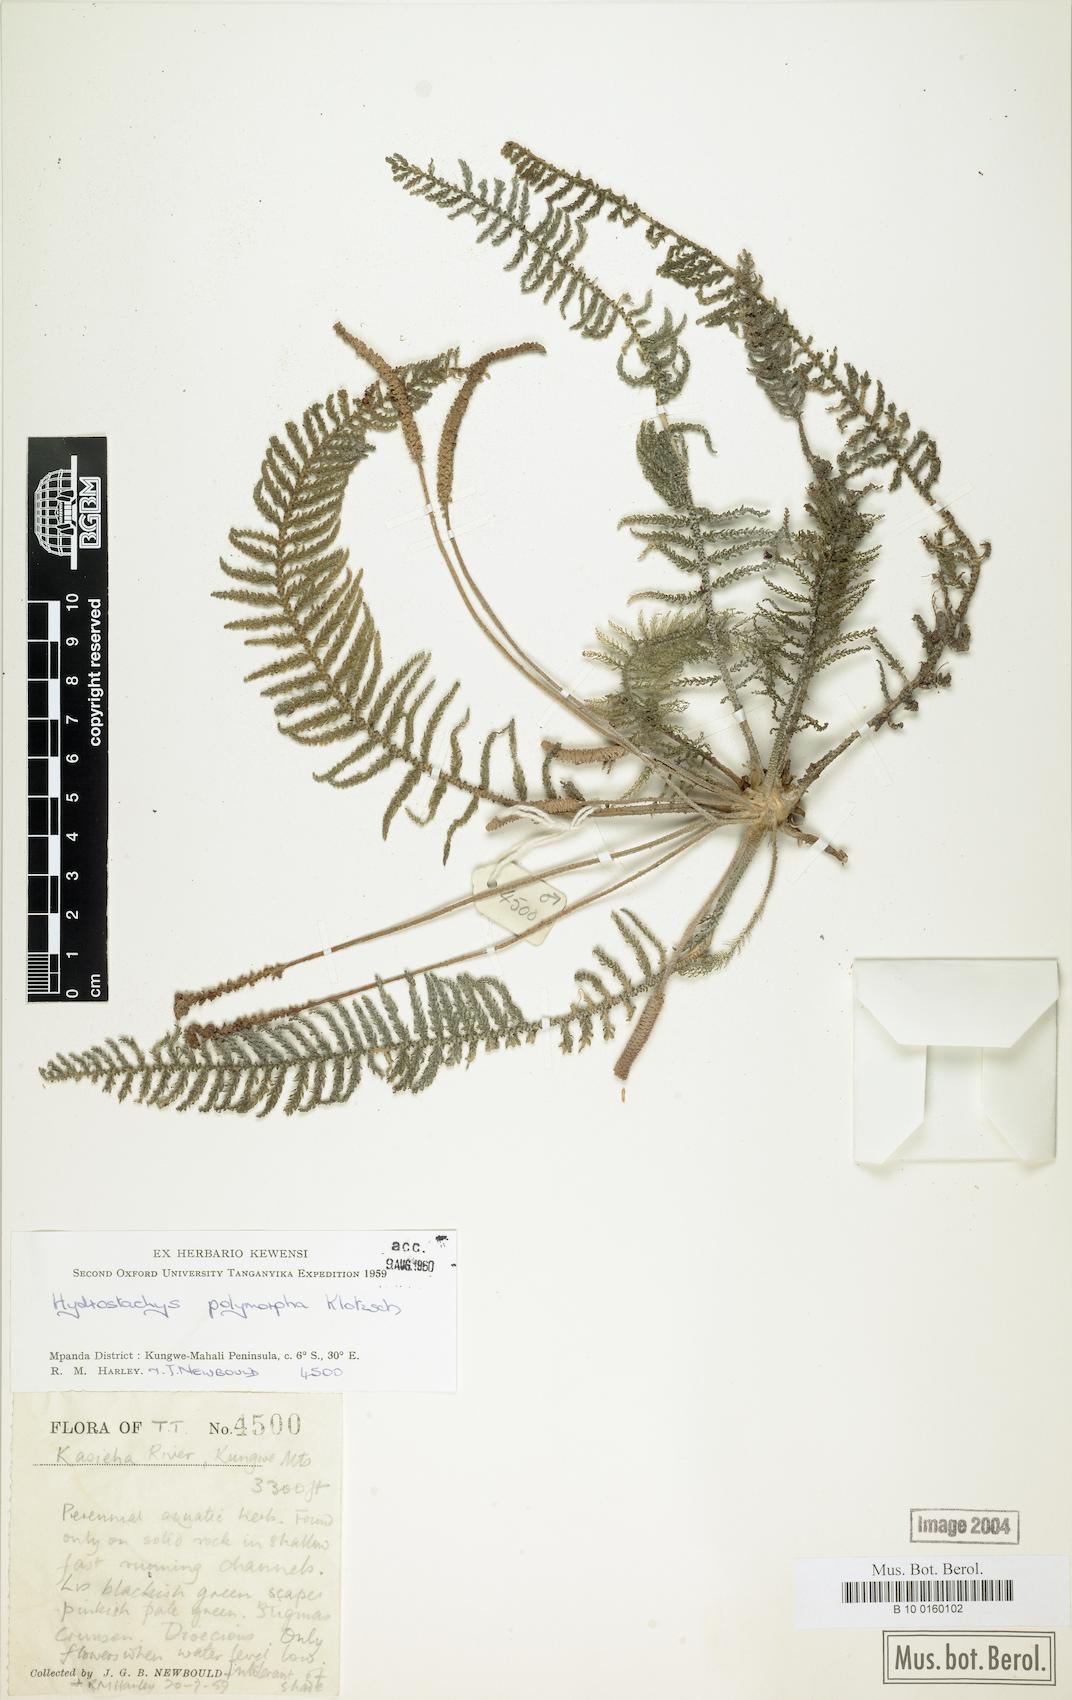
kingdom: Plantae
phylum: Tracheophyta
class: Magnoliopsida
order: Cornales
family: Hydrostachyaceae
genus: Hydrostachys
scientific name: Hydrostachys polymorpha
